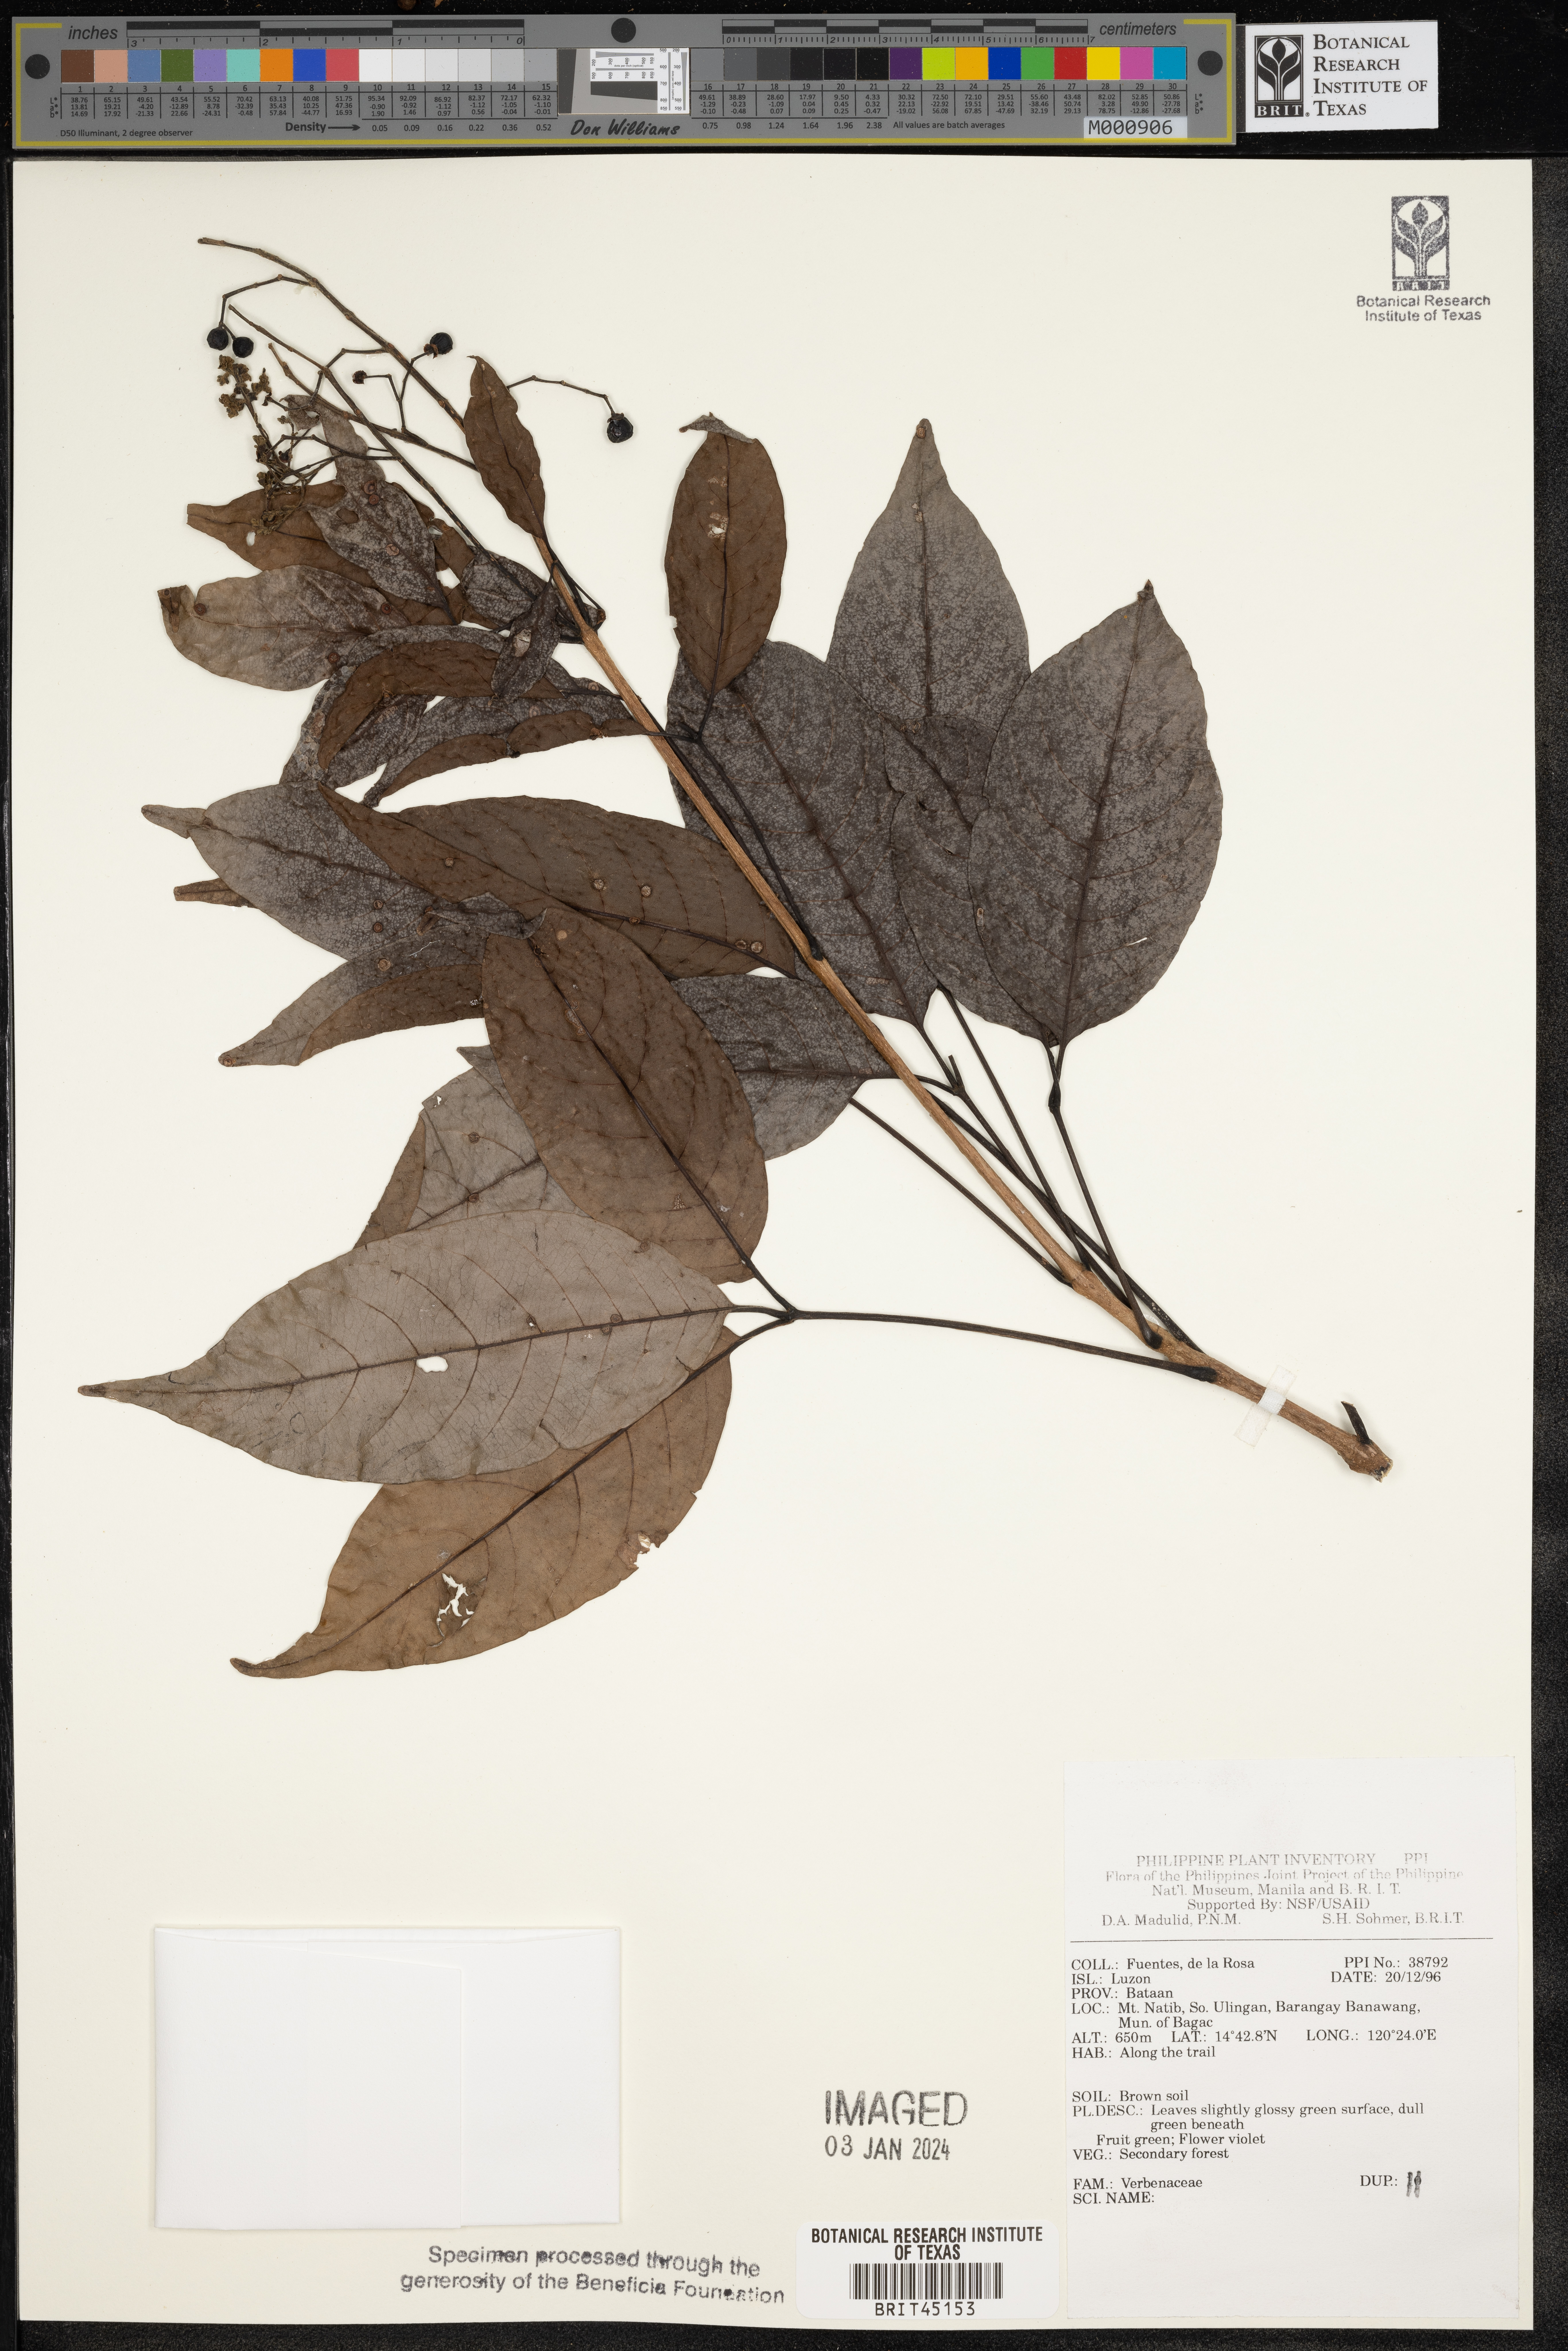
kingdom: Plantae
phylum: Tracheophyta
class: Magnoliopsida
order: Lamiales
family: Verbenaceae
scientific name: Verbenaceae
